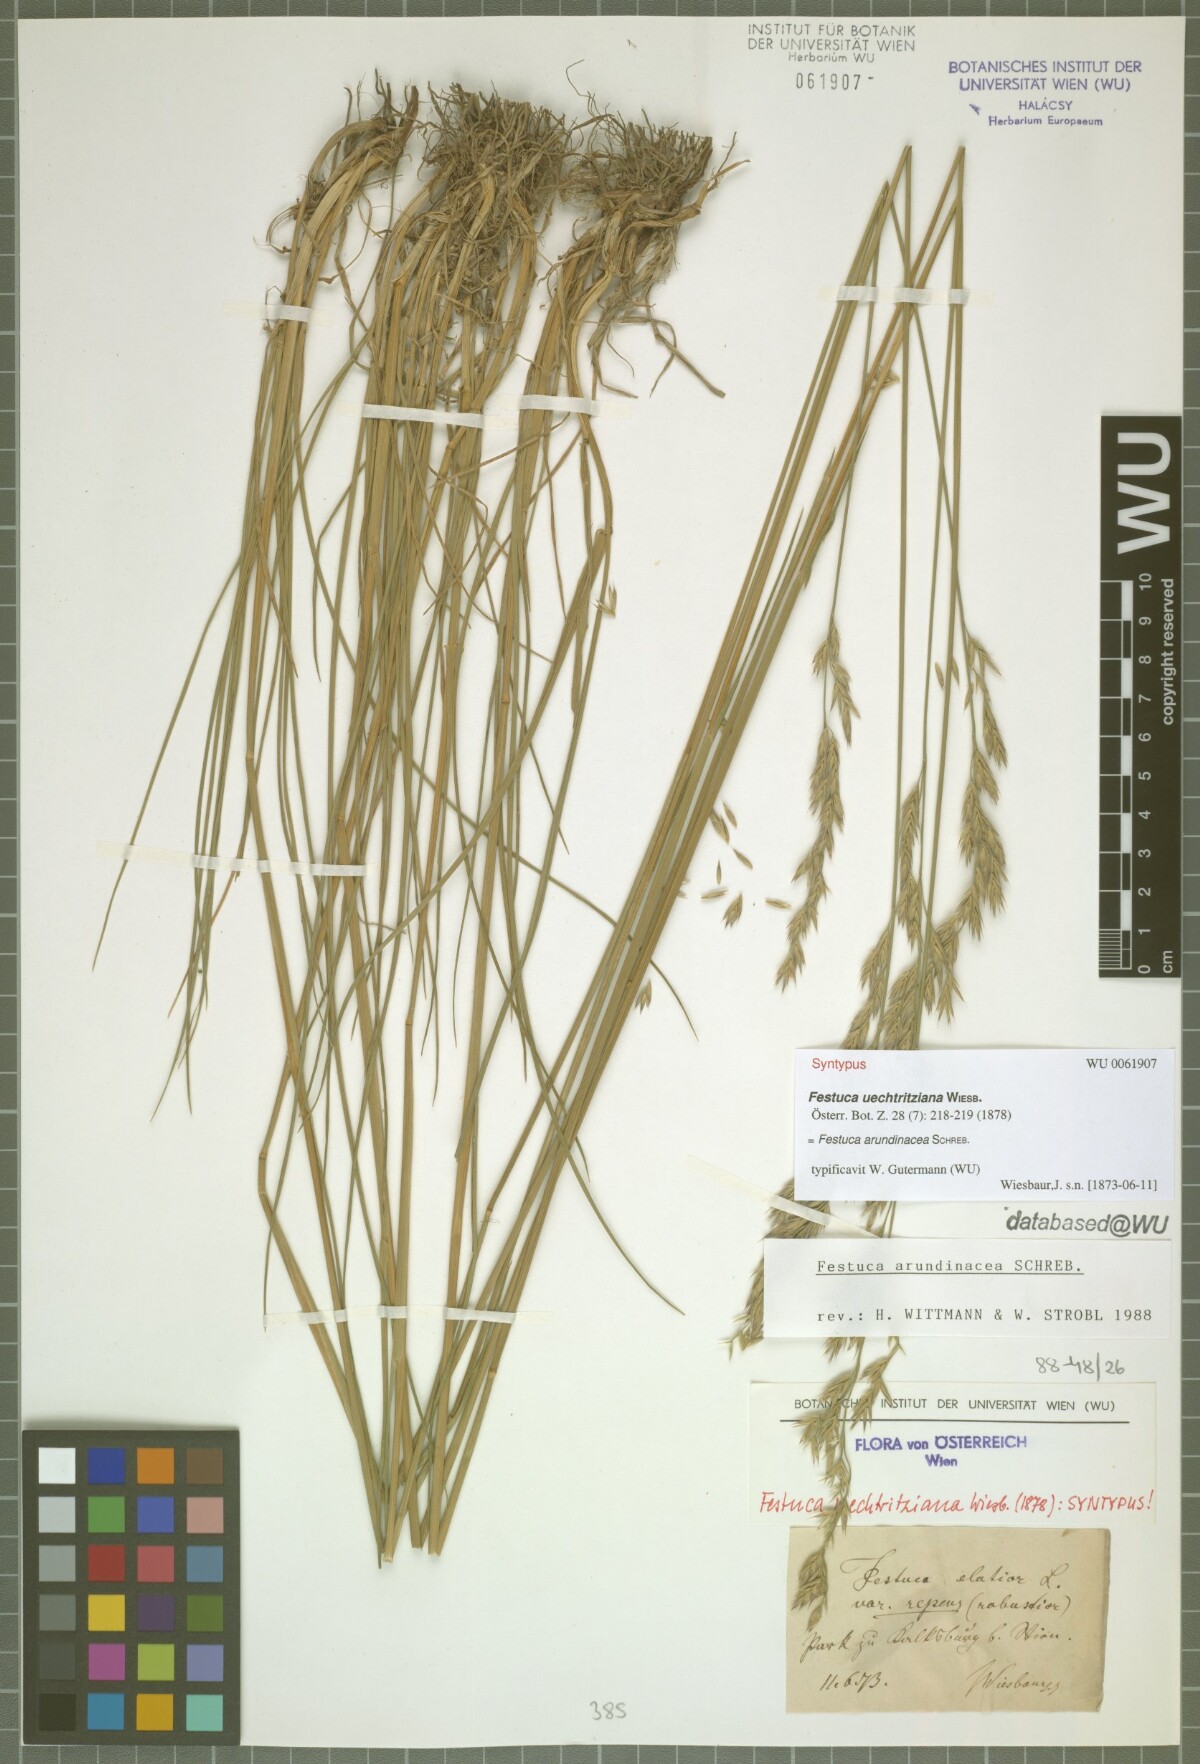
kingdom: Plantae
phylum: Tracheophyta
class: Liliopsida
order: Poales
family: Poaceae
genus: Lolium
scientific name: Lolium arundinaceum
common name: Reed fescue
